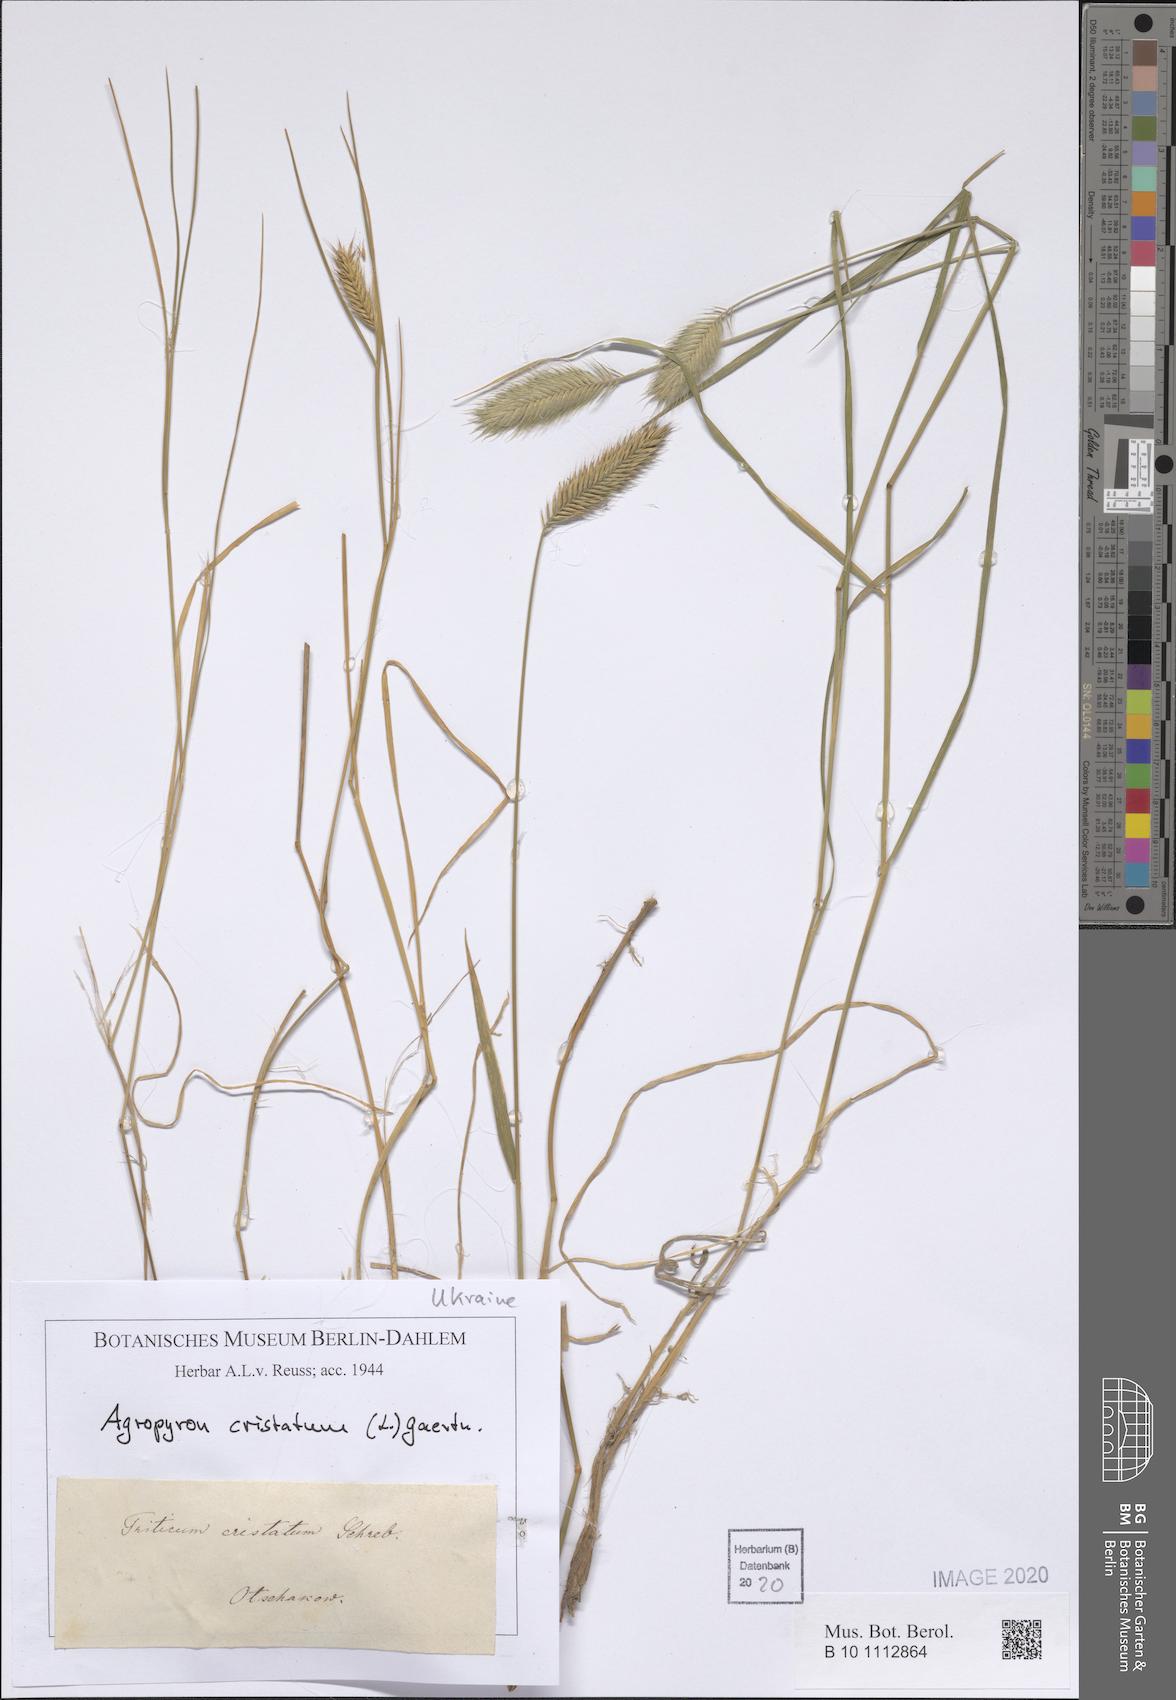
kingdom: Plantae
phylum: Tracheophyta
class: Liliopsida
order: Poales
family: Poaceae
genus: Agropyron
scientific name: Agropyron cristatum
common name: Crested wheatgrass
